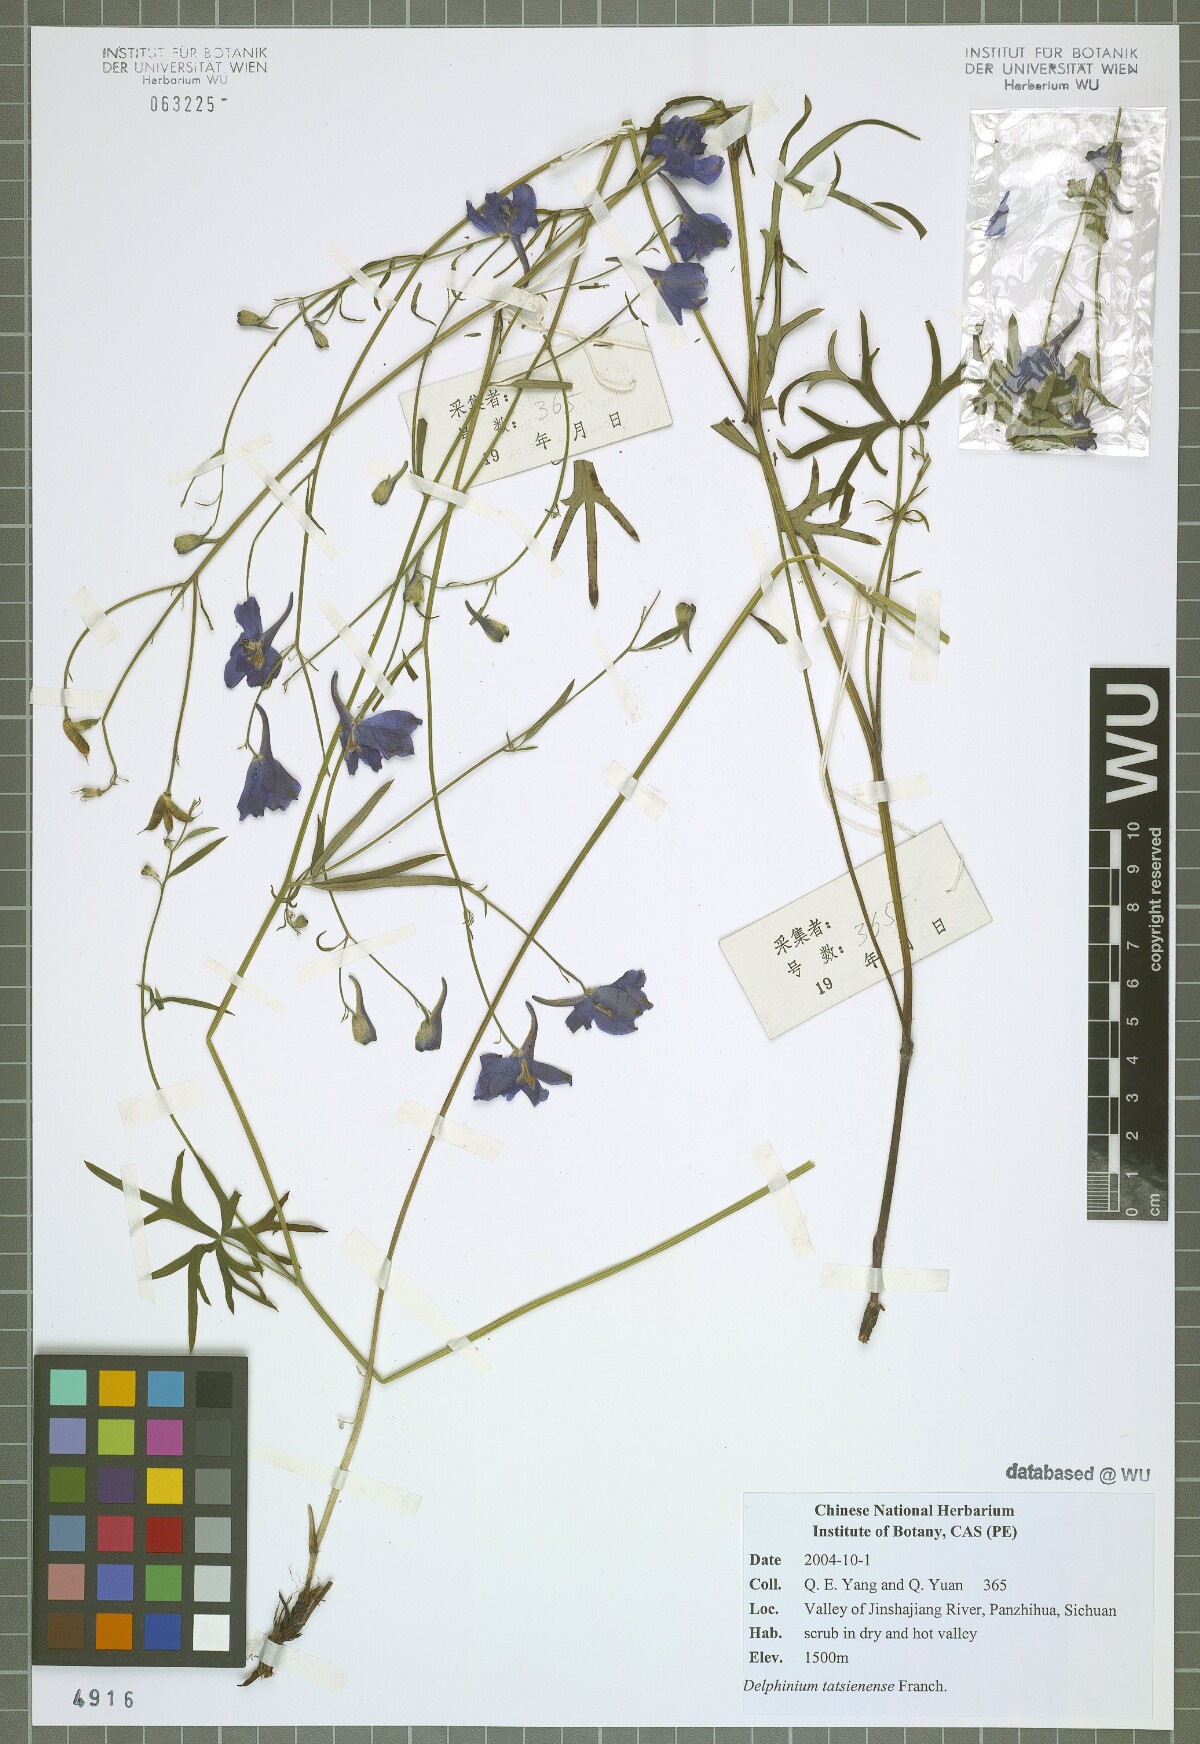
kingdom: Plantae
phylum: Tracheophyta
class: Magnoliopsida
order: Ranunculales
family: Ranunculaceae
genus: Delphinium
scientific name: Delphinium tatsienense
